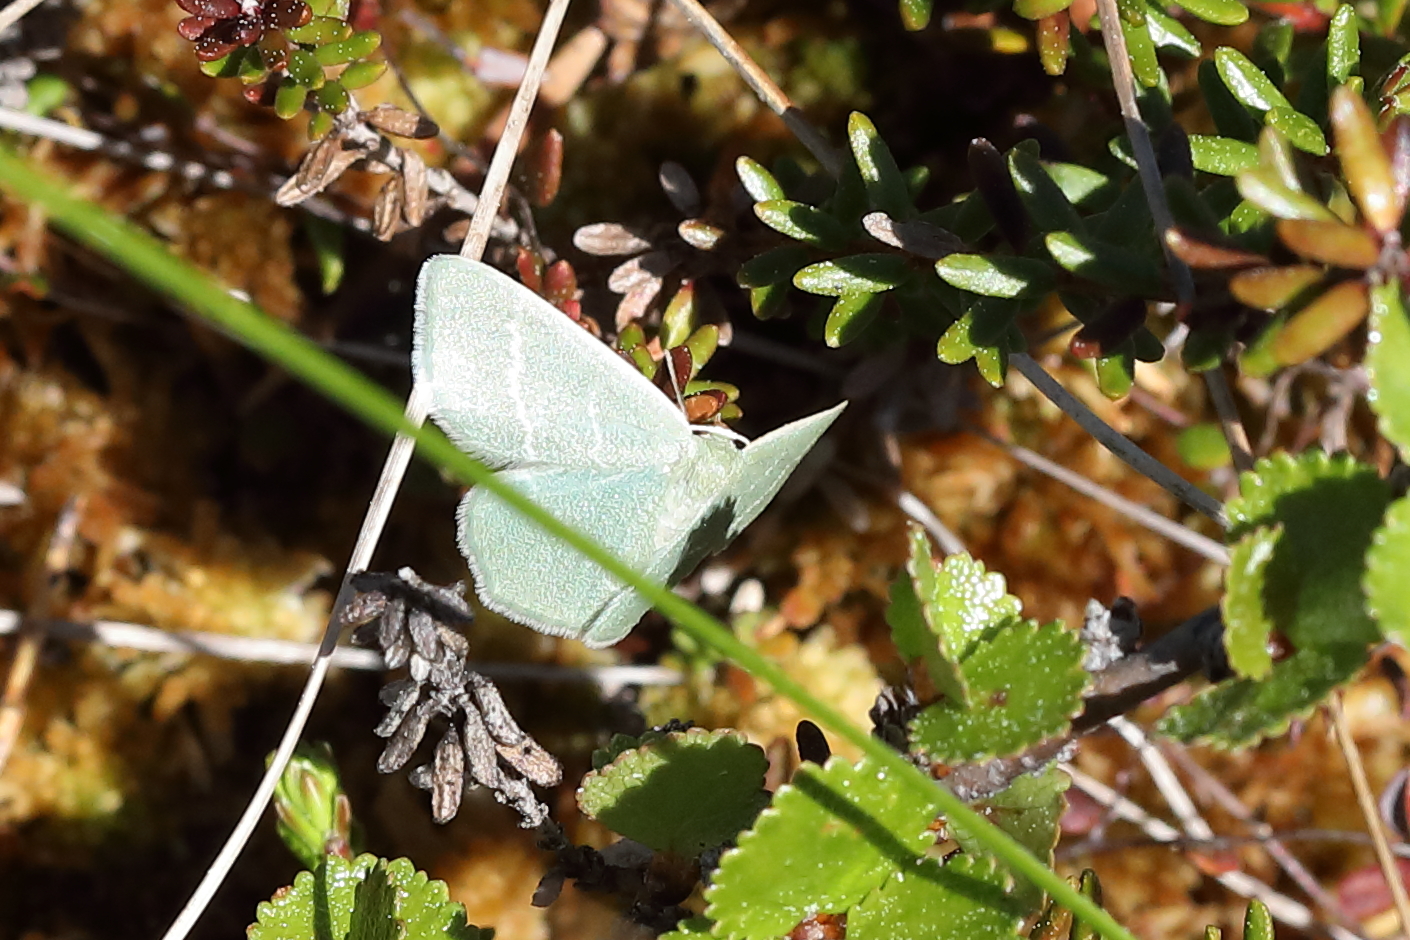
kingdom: Animalia
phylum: Arthropoda
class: Insecta
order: Lepidoptera
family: Geometridae
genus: Chlorissa
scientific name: Chlorissa viridata
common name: Small grass emerald
